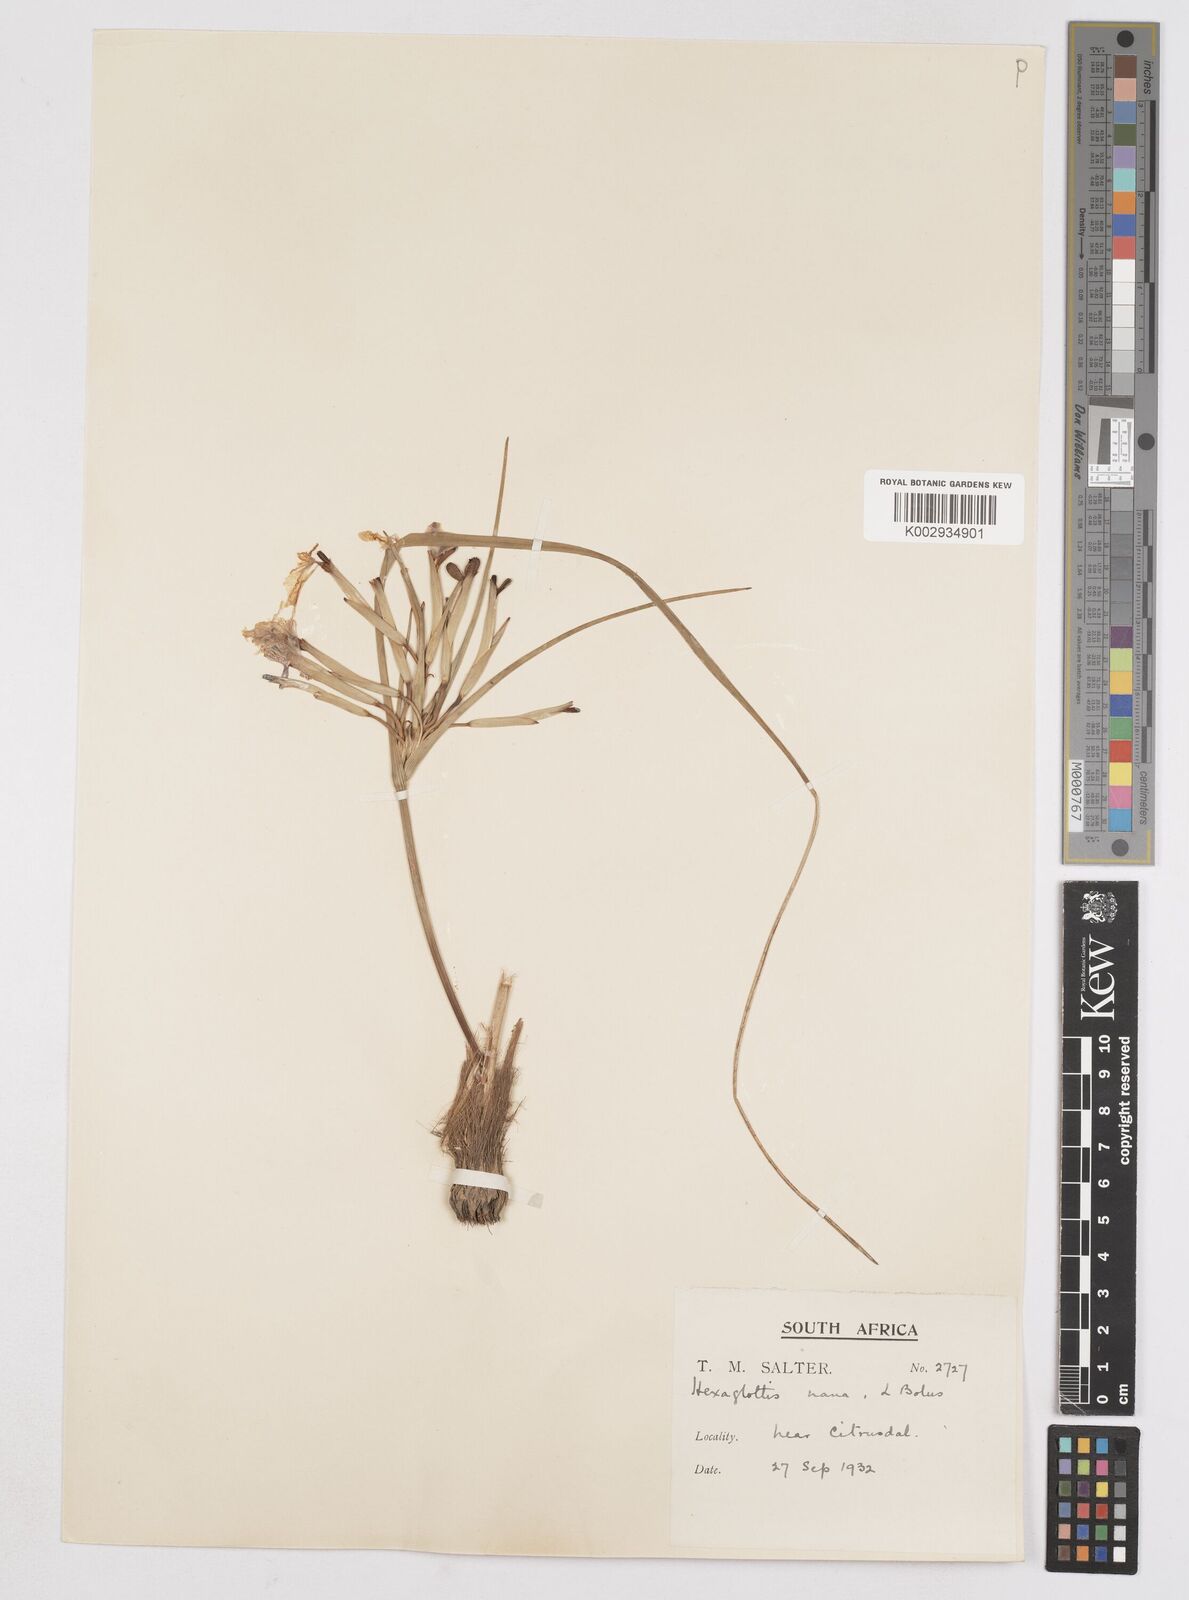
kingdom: Plantae
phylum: Tracheophyta
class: Liliopsida
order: Asparagales
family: Iridaceae
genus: Moraea
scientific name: Moraea nana
